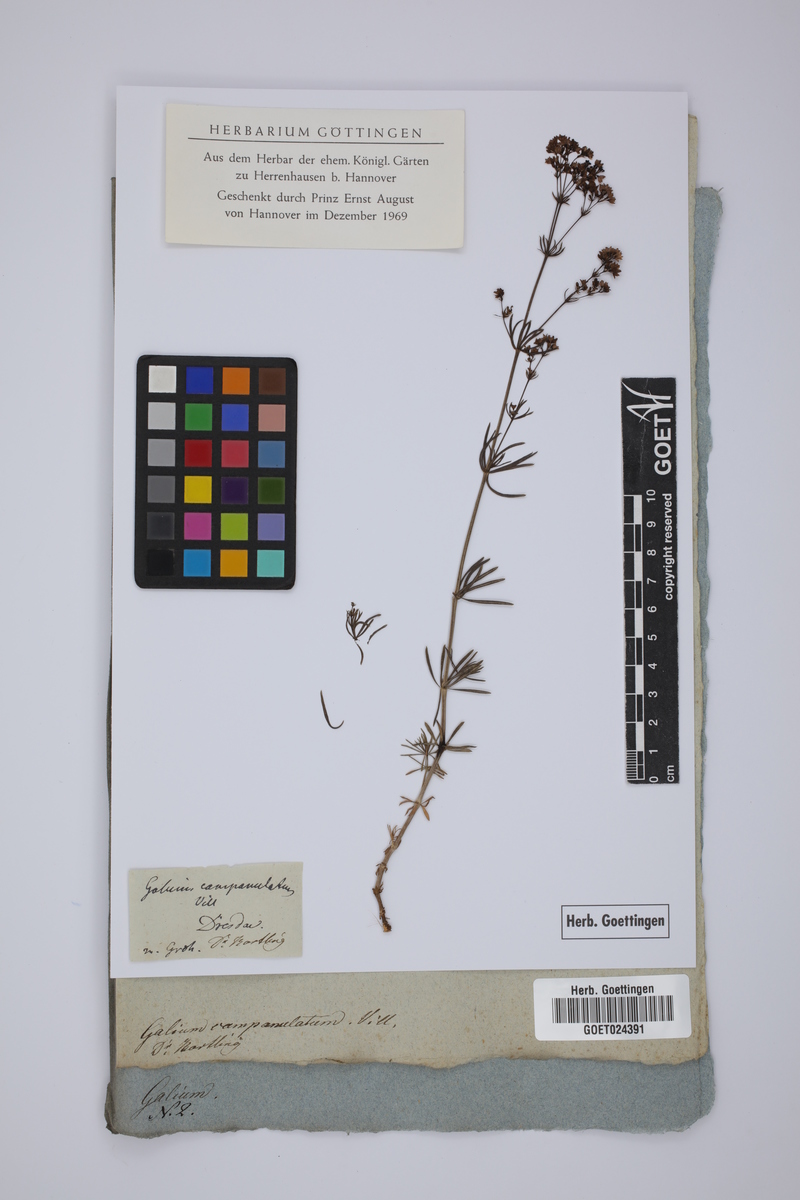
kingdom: Plantae
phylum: Tracheophyta
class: Magnoliopsida
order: Gentianales
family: Rubiaceae
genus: Galium
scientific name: Galium glaucum
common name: Waxy bedstraw
